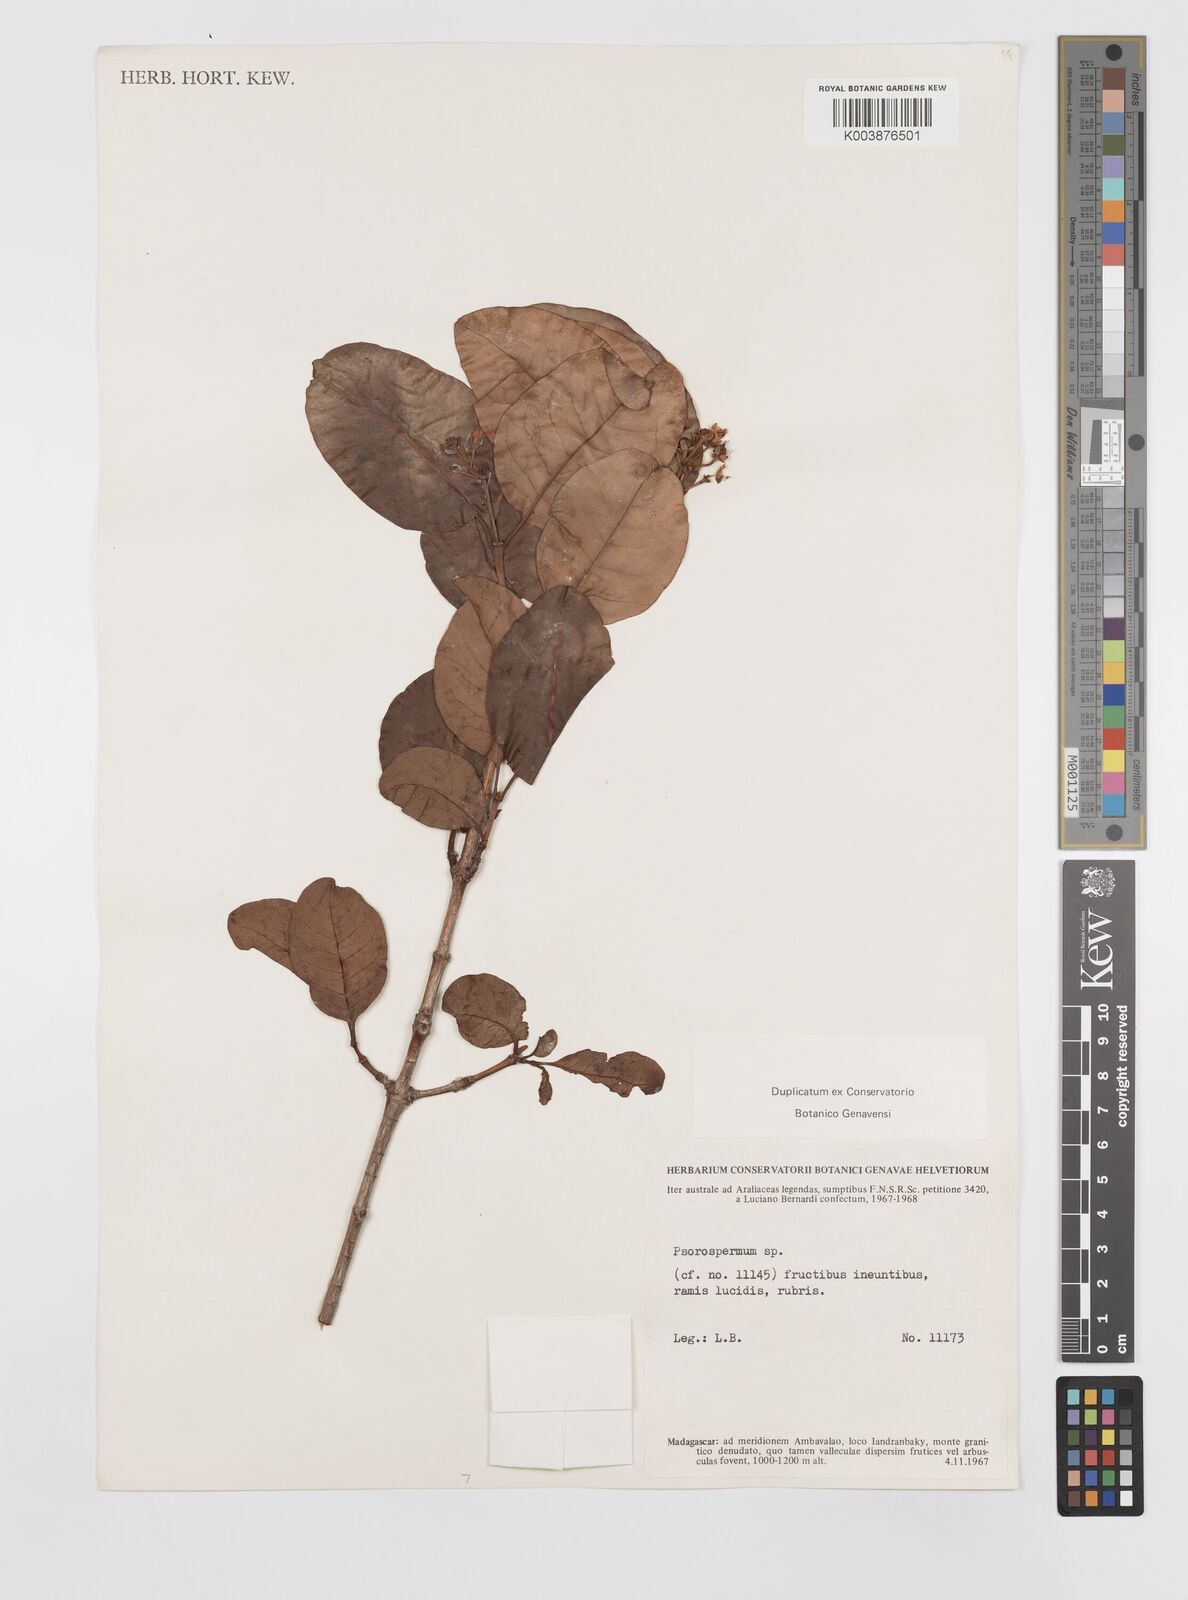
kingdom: Plantae
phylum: Tracheophyta
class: Magnoliopsida
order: Malpighiales
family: Hypericaceae
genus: Psorospermum
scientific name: Psorospermum
